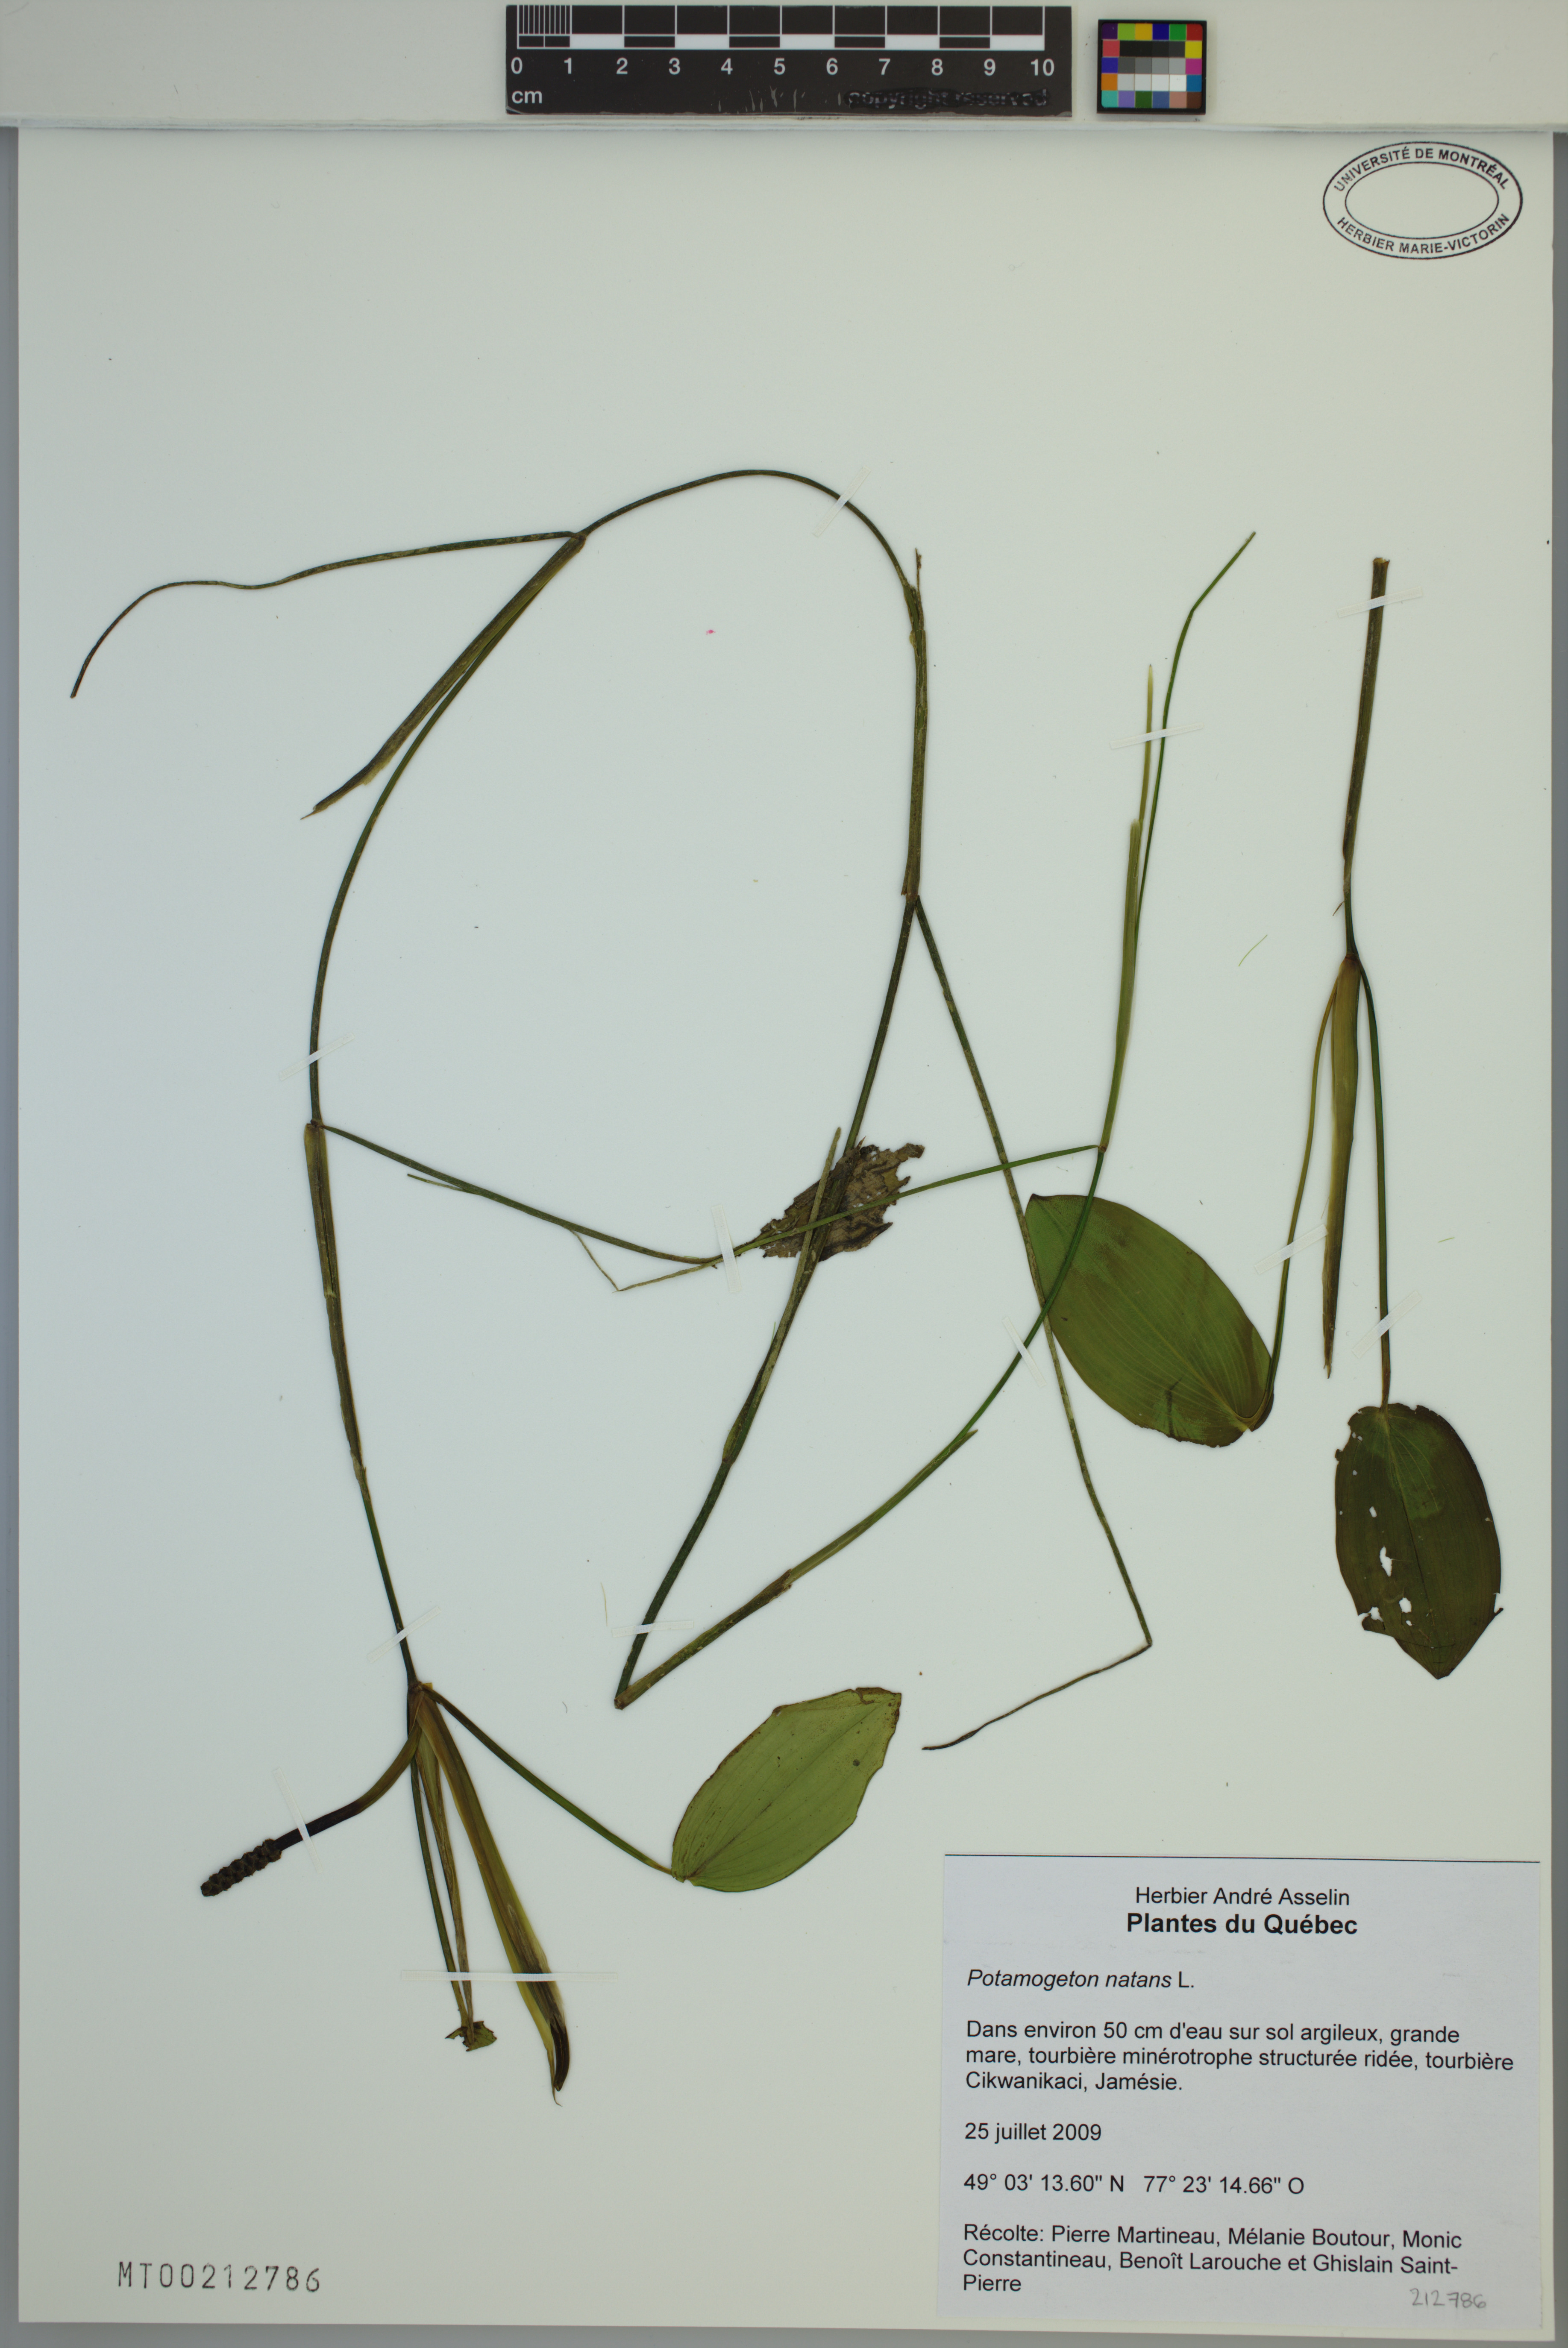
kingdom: Plantae
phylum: Tracheophyta
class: Liliopsida
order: Alismatales
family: Potamogetonaceae
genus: Potamogeton
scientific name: Potamogeton natans
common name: Broad-leaved pondweed
